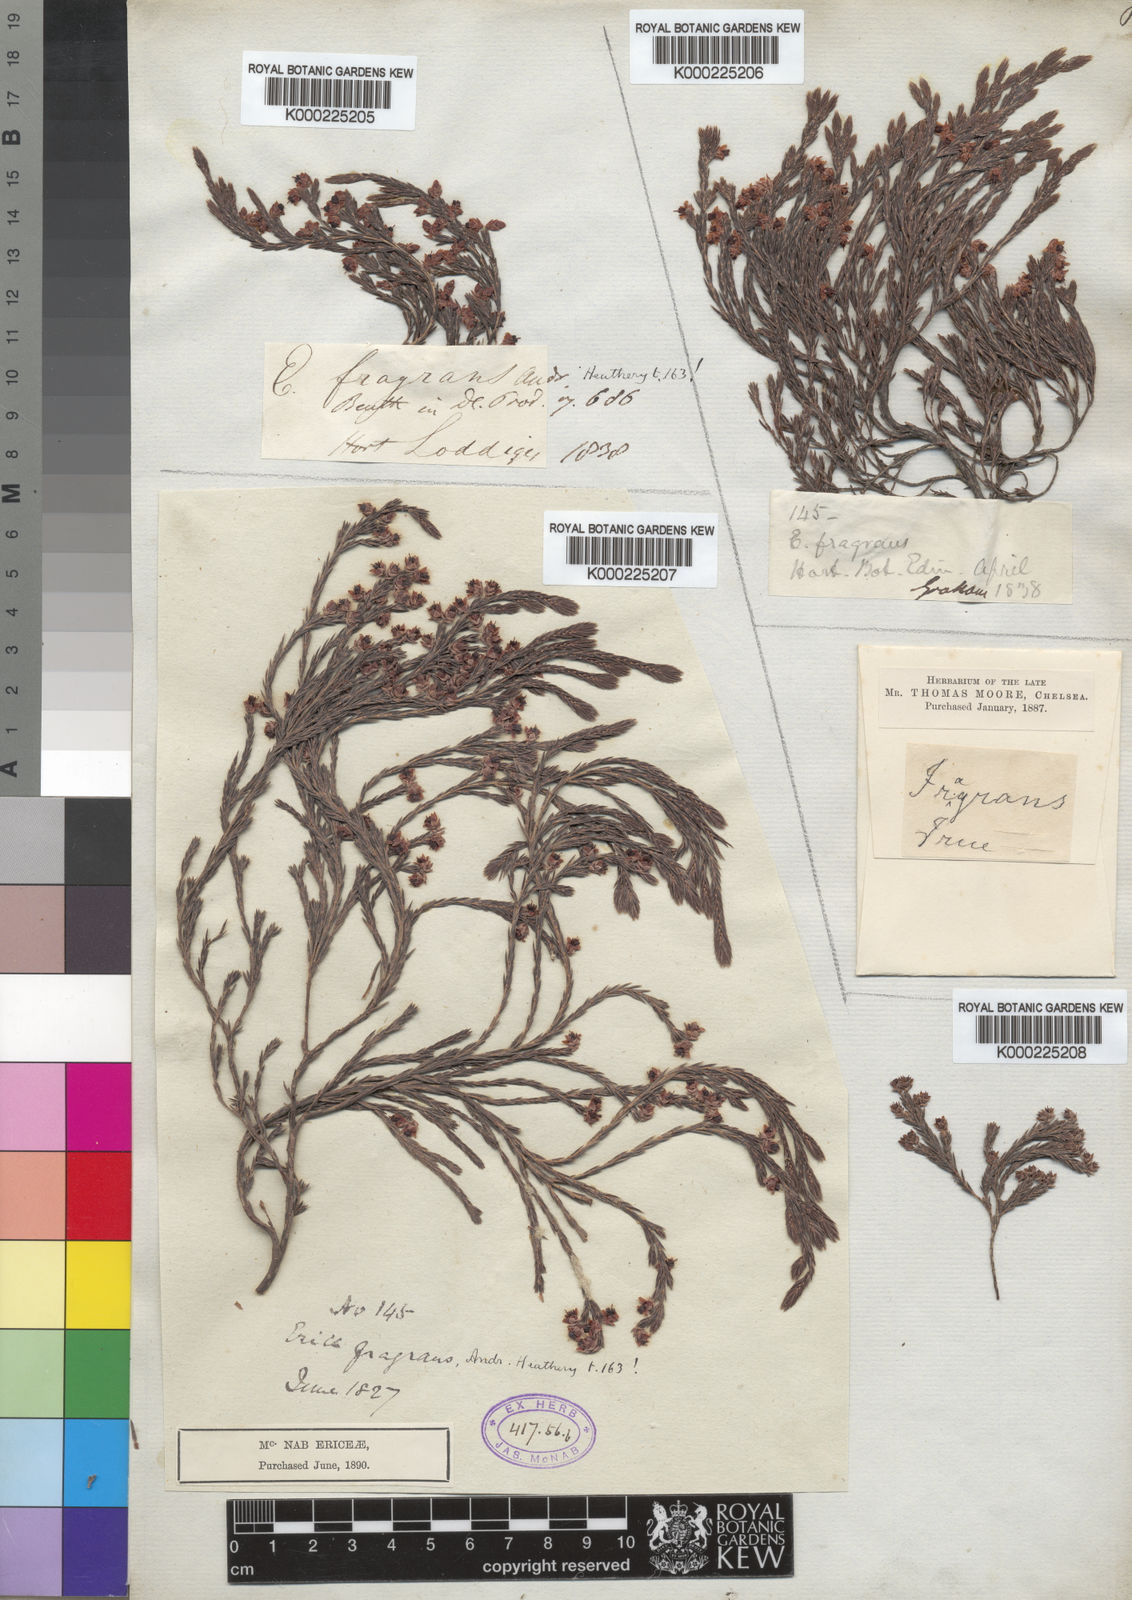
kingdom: Plantae
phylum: Tracheophyta
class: Magnoliopsida
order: Ericales
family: Ericaceae
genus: Erica
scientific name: Erica
